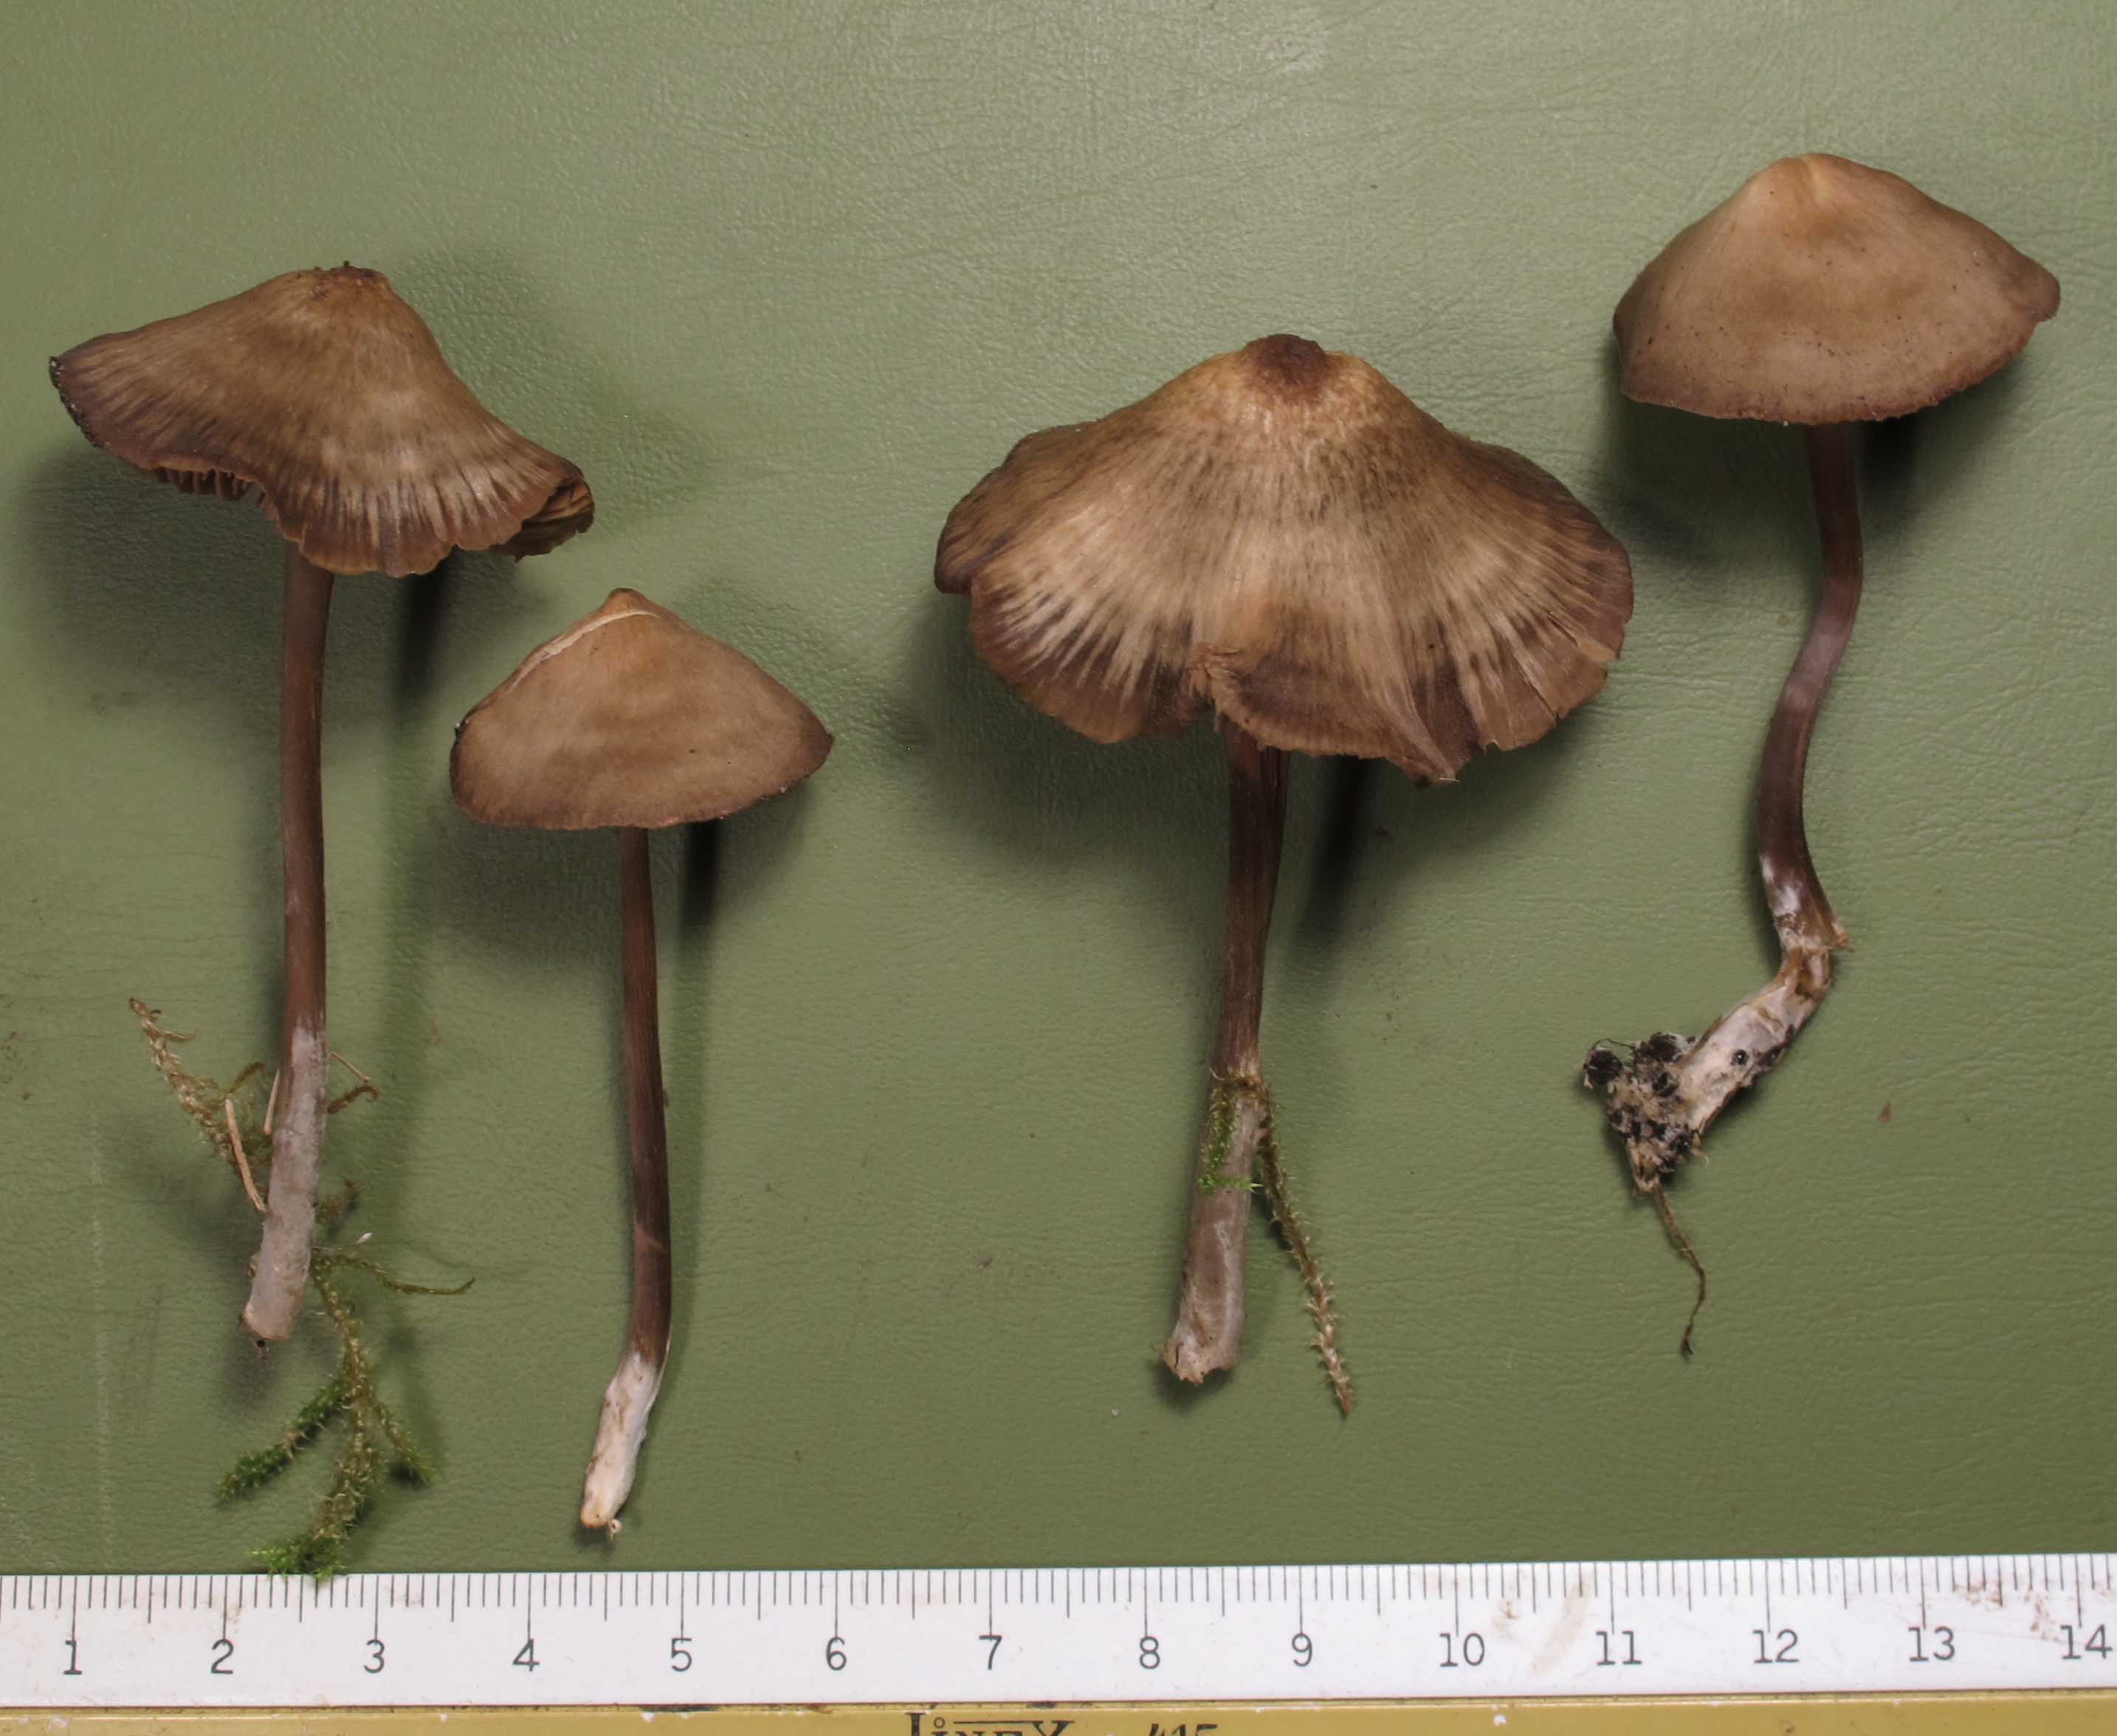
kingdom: Fungi
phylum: Basidiomycota
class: Agaricomycetes
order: Agaricales
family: Entolomataceae
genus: Entoloma
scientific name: Entoloma infula
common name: hvidbladet rødblad
